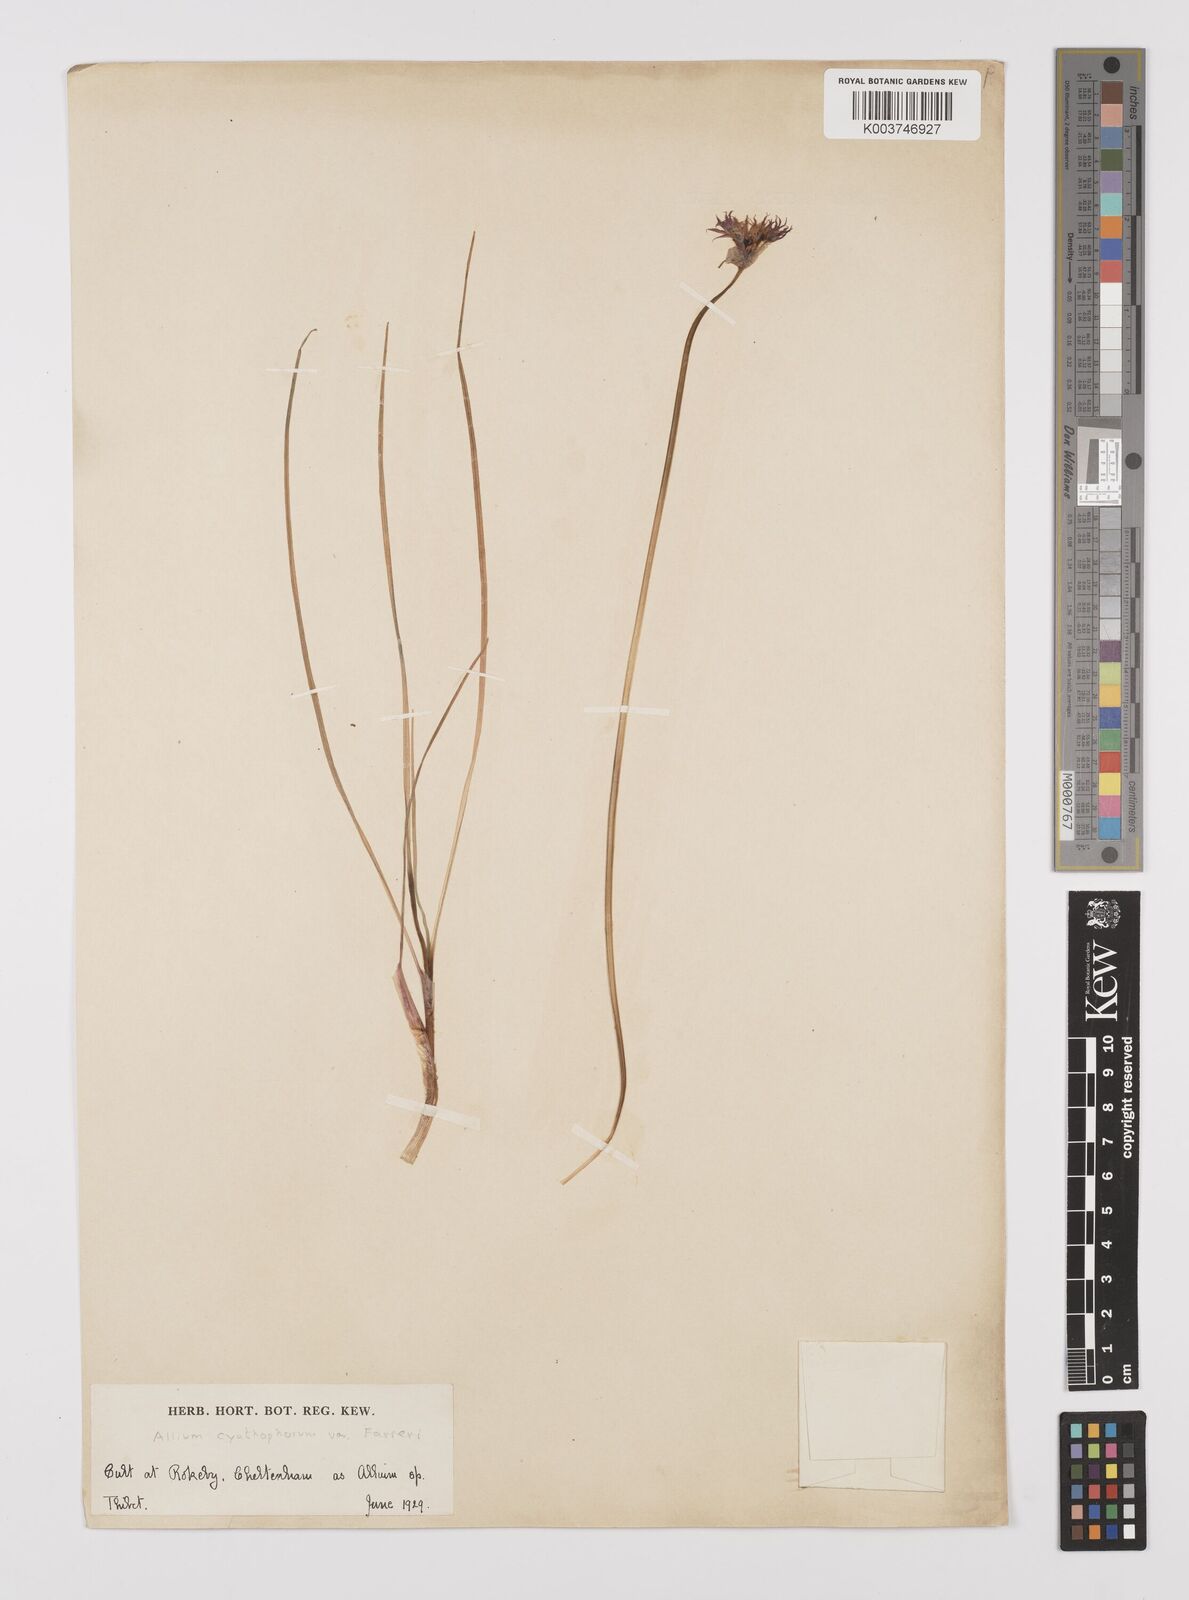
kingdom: Plantae
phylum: Tracheophyta
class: Liliopsida
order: Asparagales
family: Amaryllidaceae
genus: Allium
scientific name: Allium
